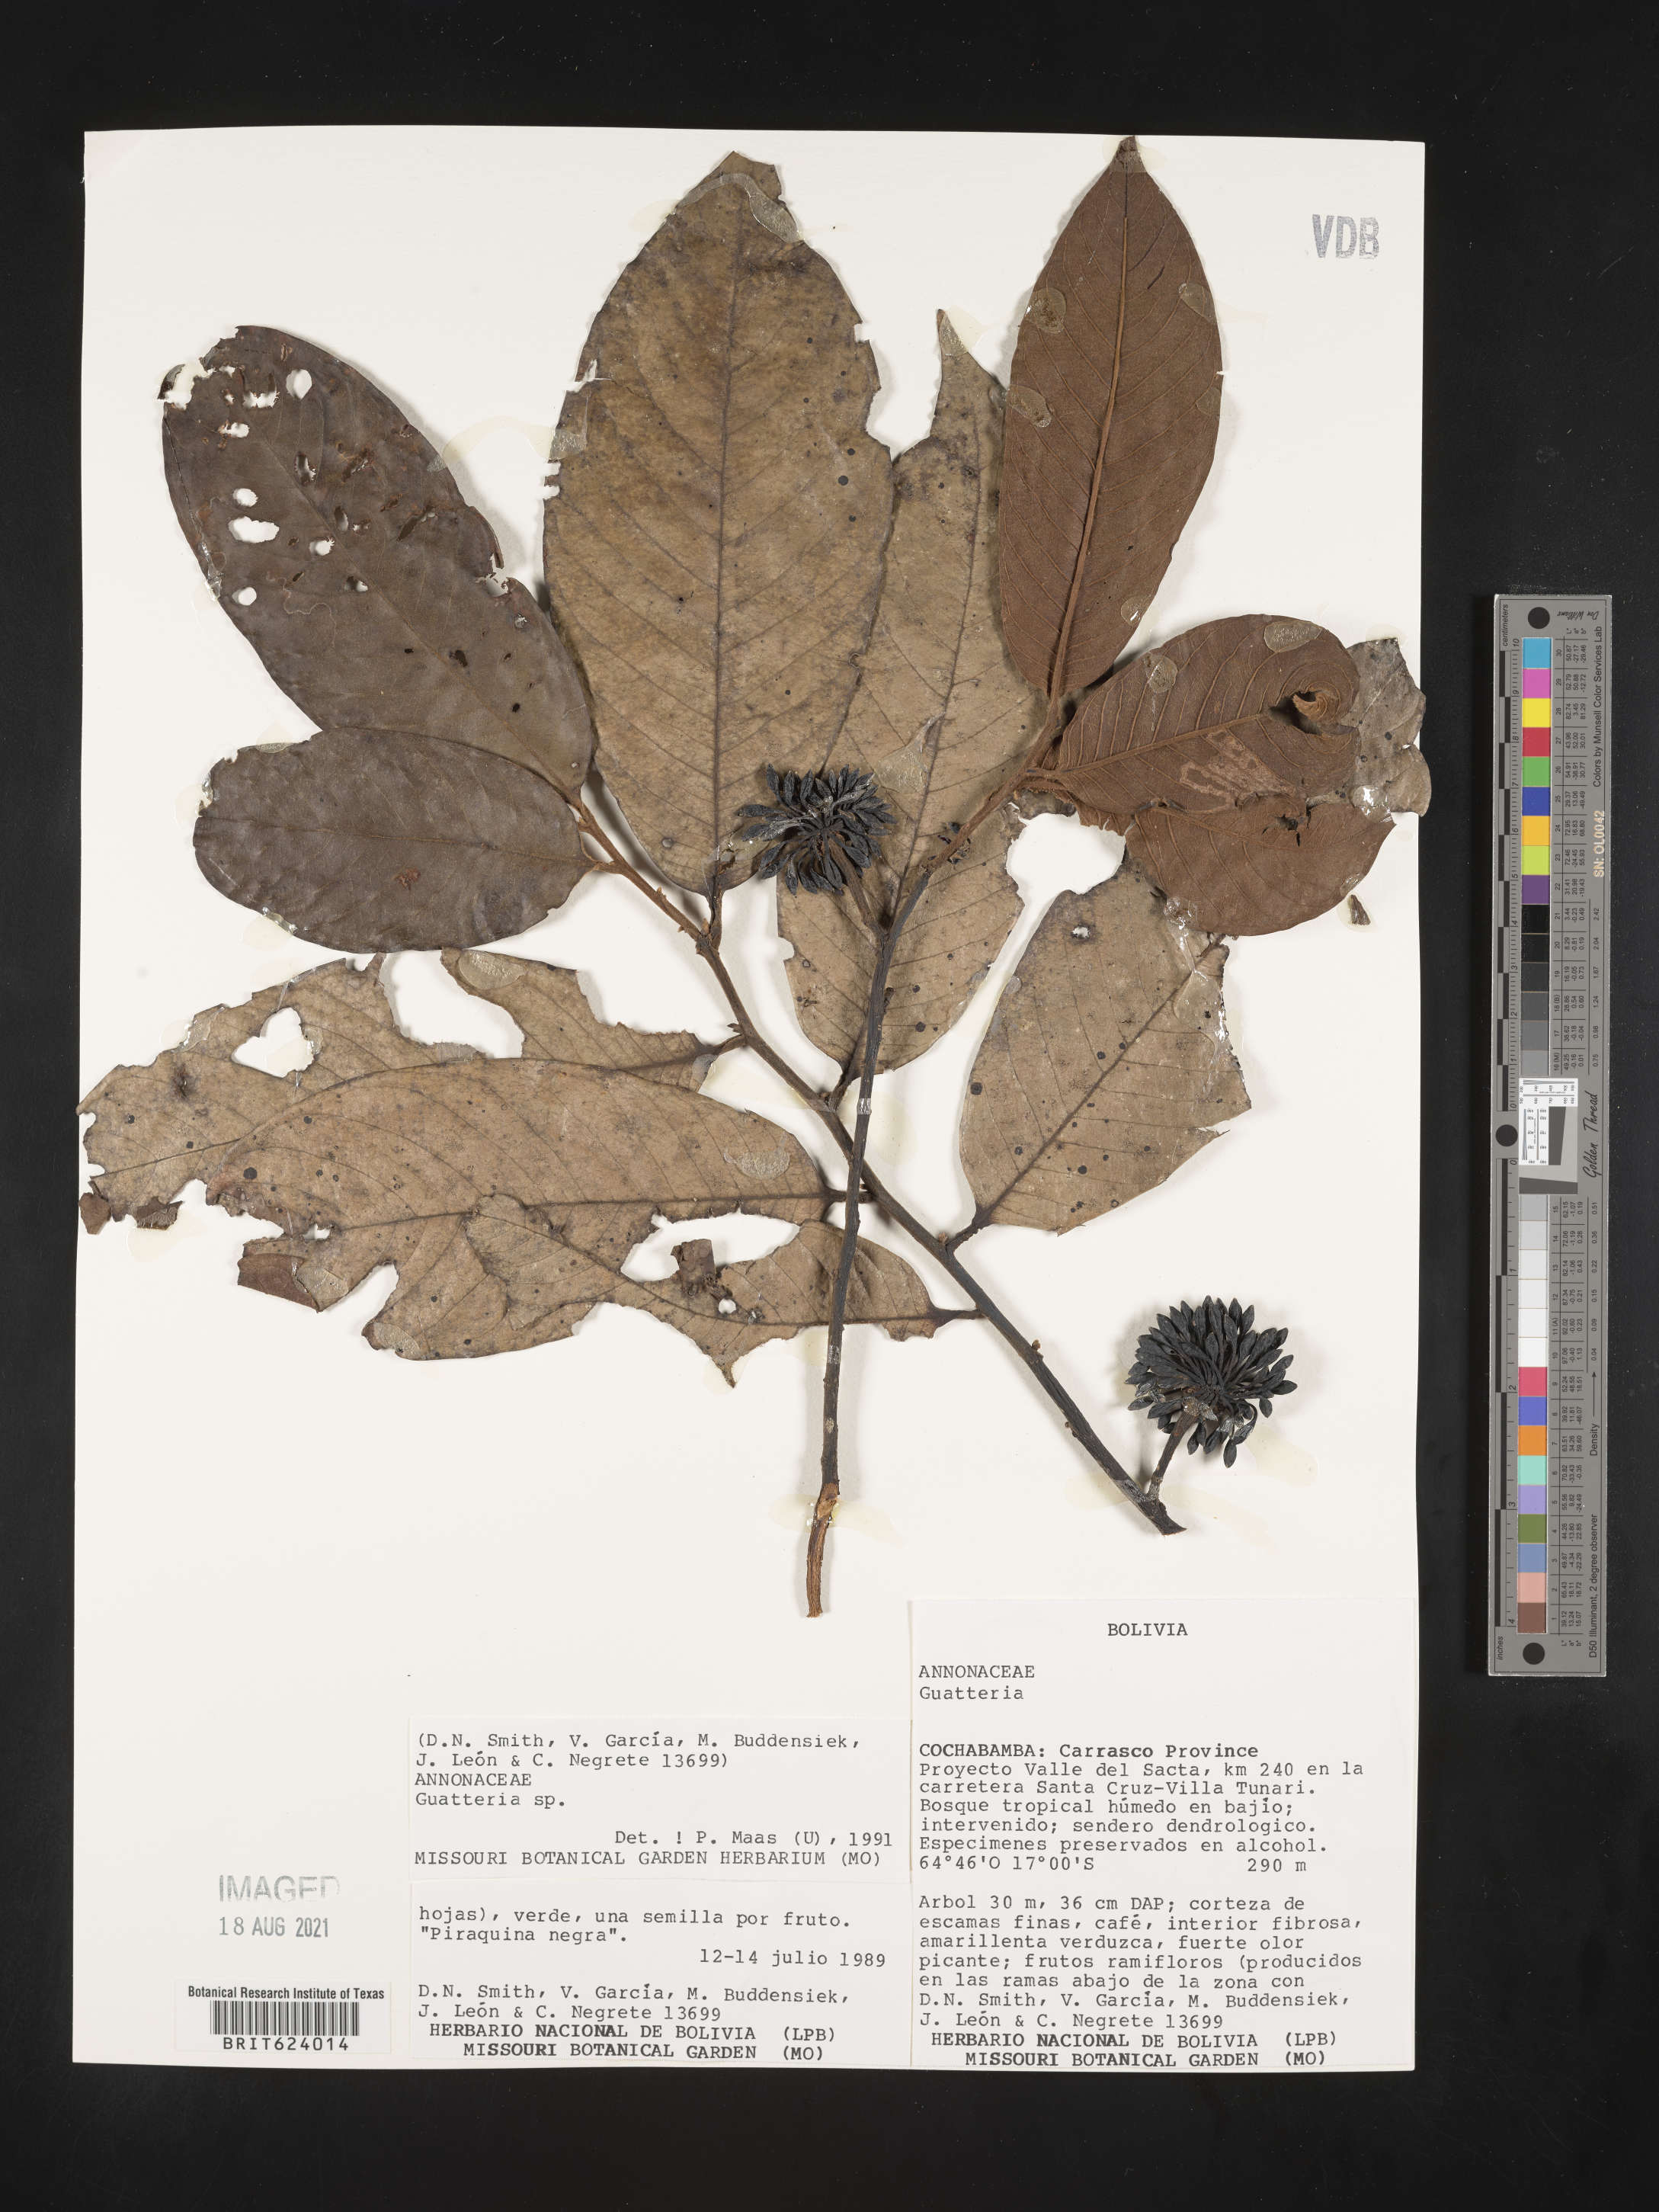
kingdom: Plantae
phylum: Tracheophyta
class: Magnoliopsida
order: Magnoliales
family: Annonaceae
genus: Guatteria
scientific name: Guatteria
